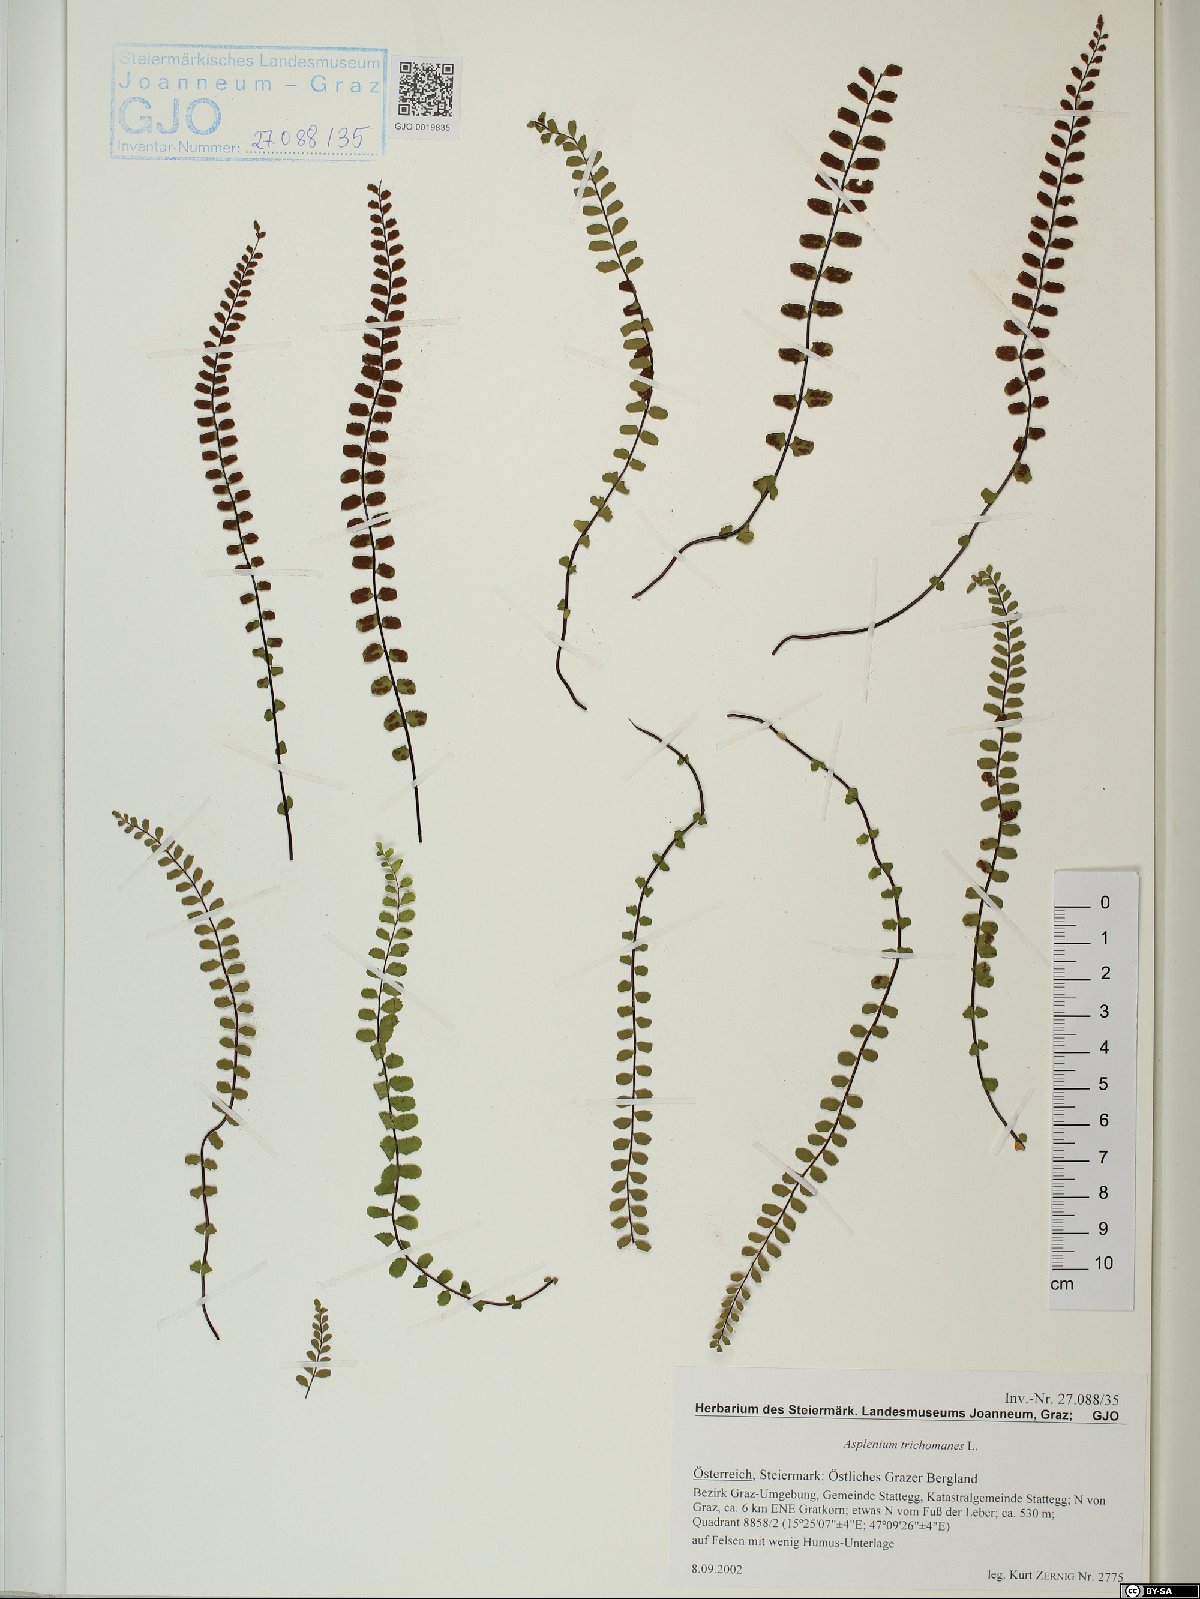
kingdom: Plantae
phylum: Tracheophyta
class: Polypodiopsida
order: Polypodiales
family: Aspleniaceae
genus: Asplenium
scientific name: Asplenium trichomanes
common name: Maidenhair spleenwort
